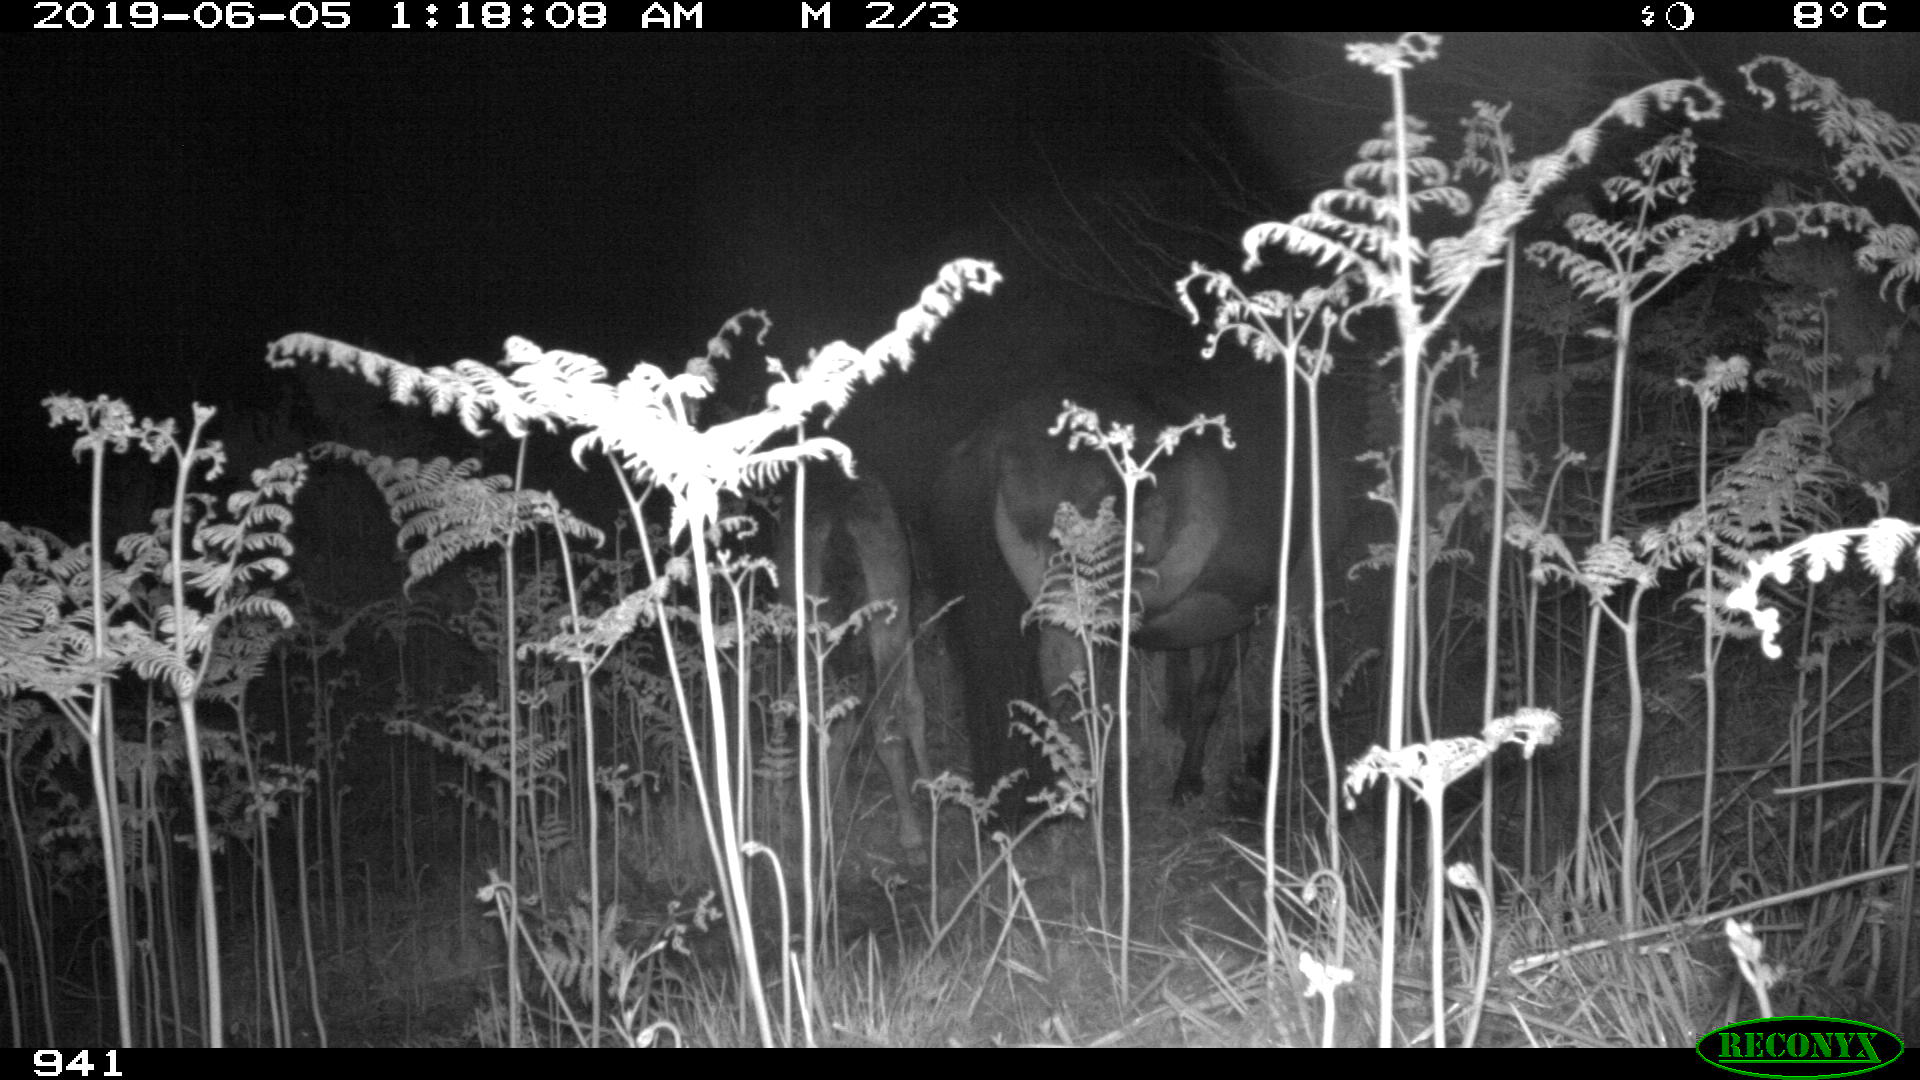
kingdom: Animalia
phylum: Chordata
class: Mammalia
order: Perissodactyla
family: Equidae
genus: Equus
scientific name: Equus caballus
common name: Horse
